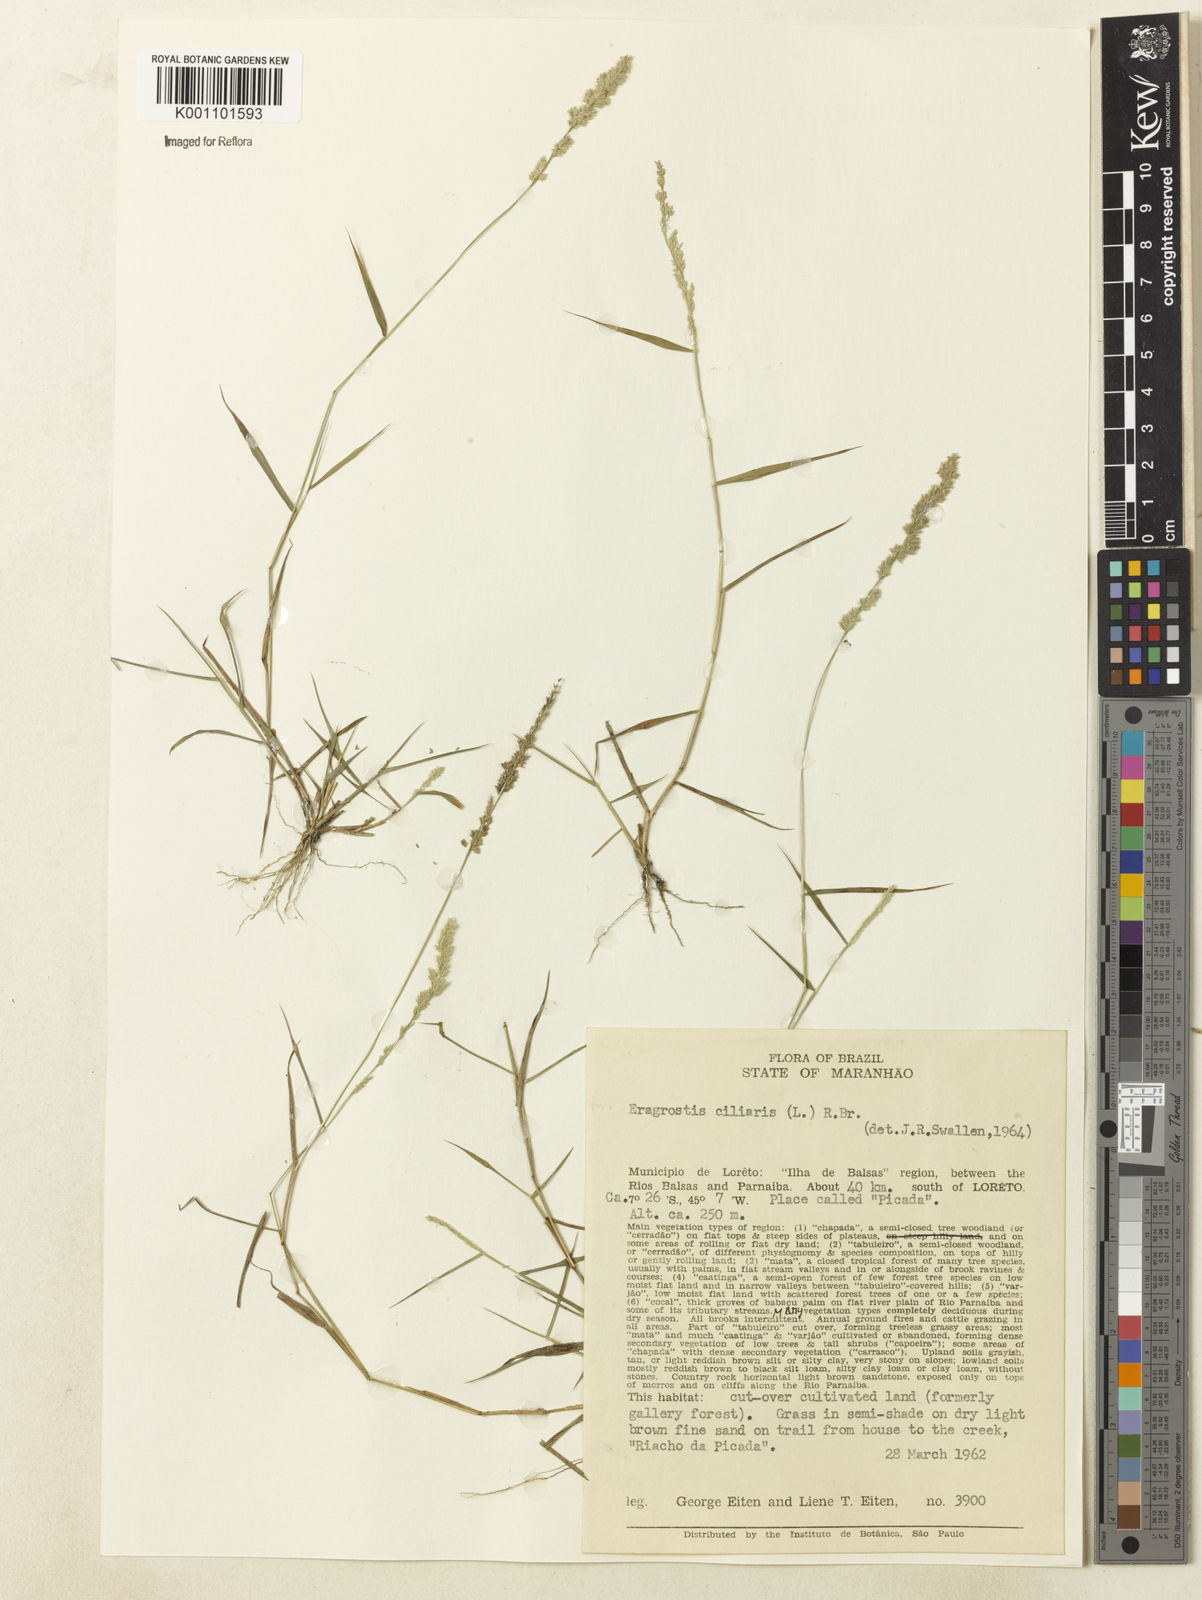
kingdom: Plantae
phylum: Tracheophyta
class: Liliopsida
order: Poales
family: Poaceae
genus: Eragrostis
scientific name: Eragrostis ciliaris
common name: Gophertail lovegrass
